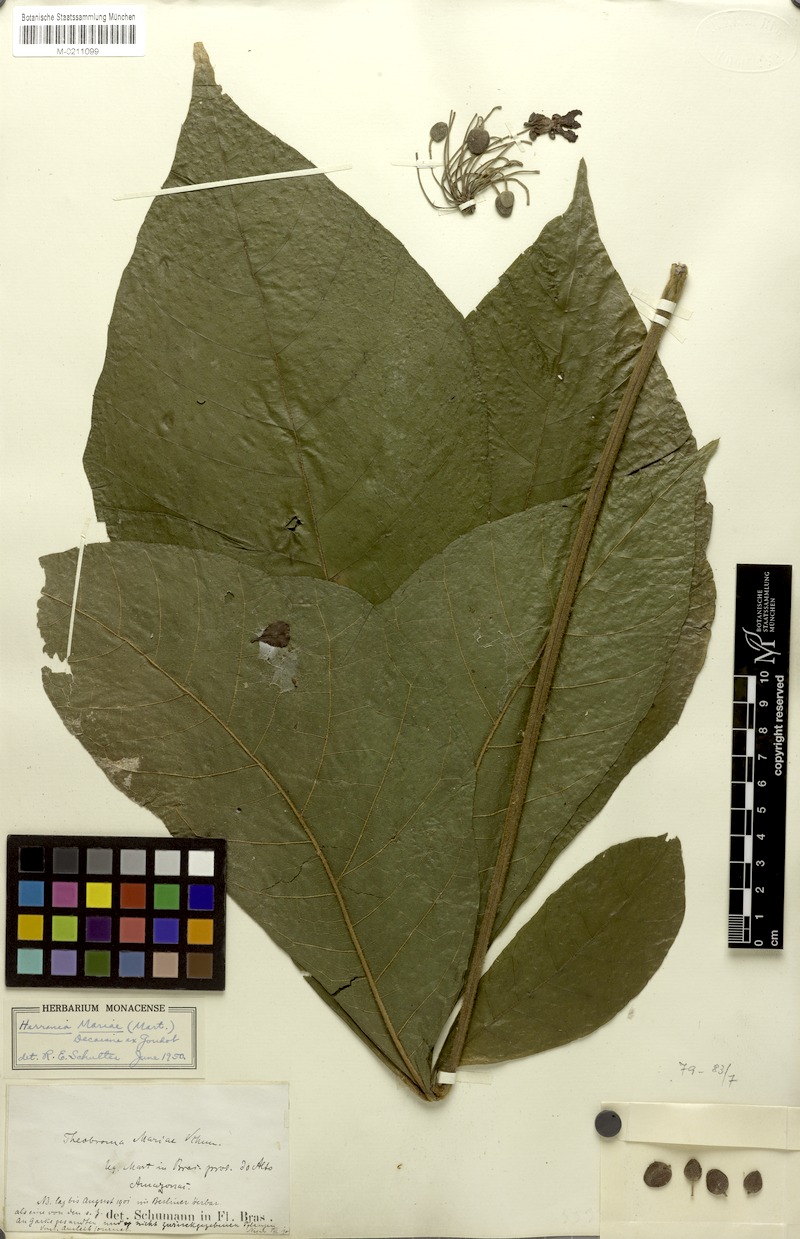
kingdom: Plantae
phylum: Tracheophyta
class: Magnoliopsida
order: Malvales
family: Malvaceae
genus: Abroma
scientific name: Abroma augustum
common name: Devil's-cotton
